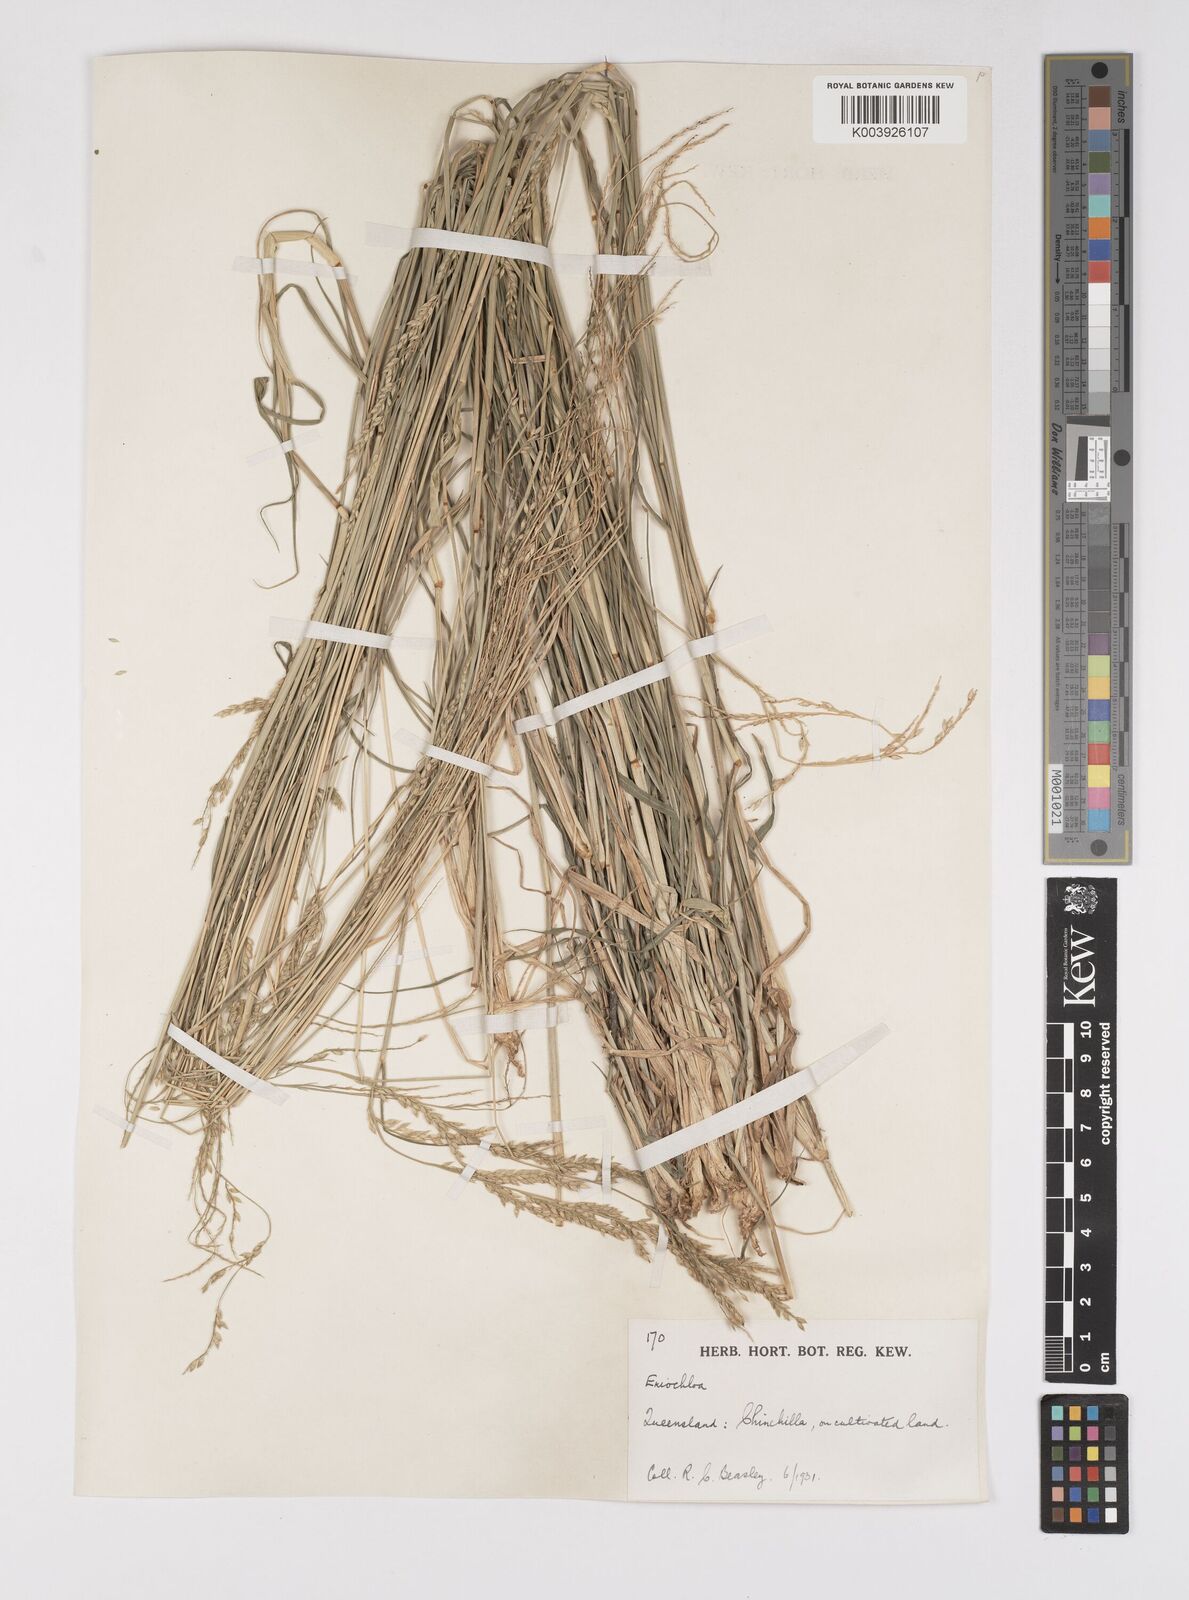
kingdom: Plantae
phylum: Tracheophyta
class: Liliopsida
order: Poales
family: Poaceae
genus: Eriochloa
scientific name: Eriochloa
